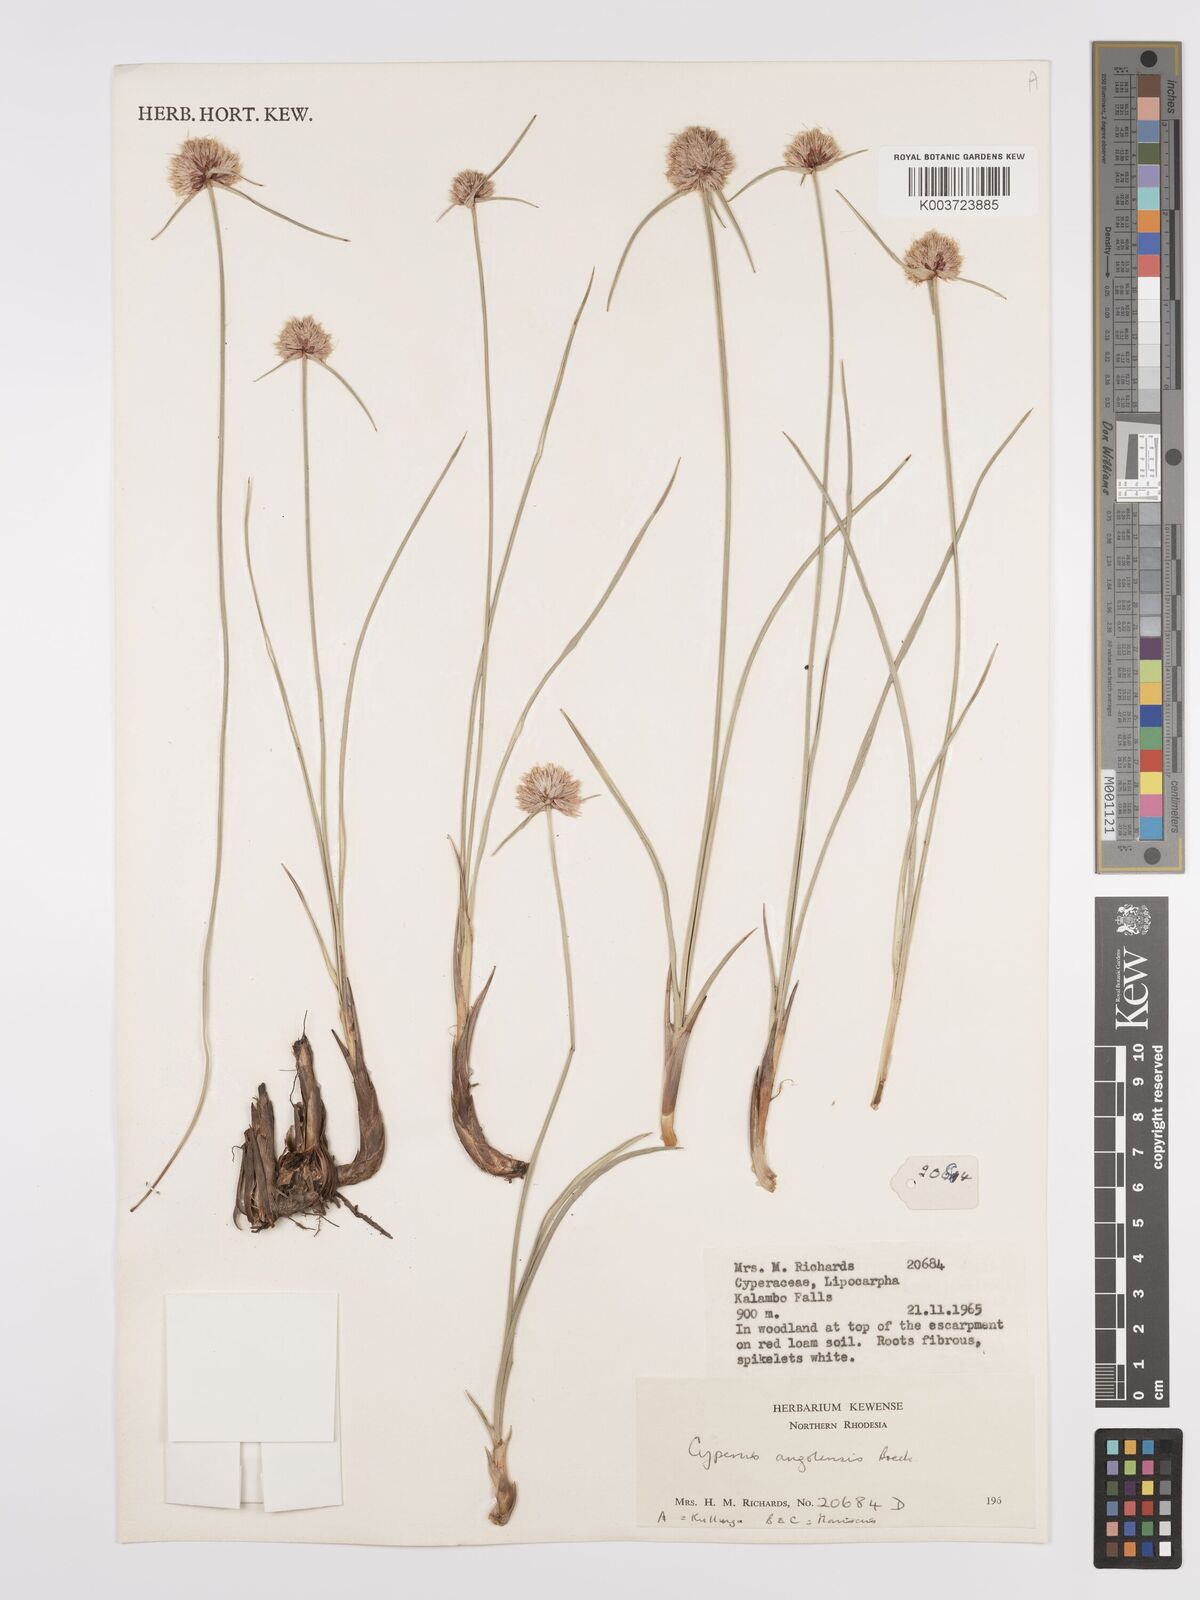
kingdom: Plantae
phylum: Tracheophyta
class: Liliopsida
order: Poales
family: Cyperaceae
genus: Cyperus
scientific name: Cyperus angolensis
